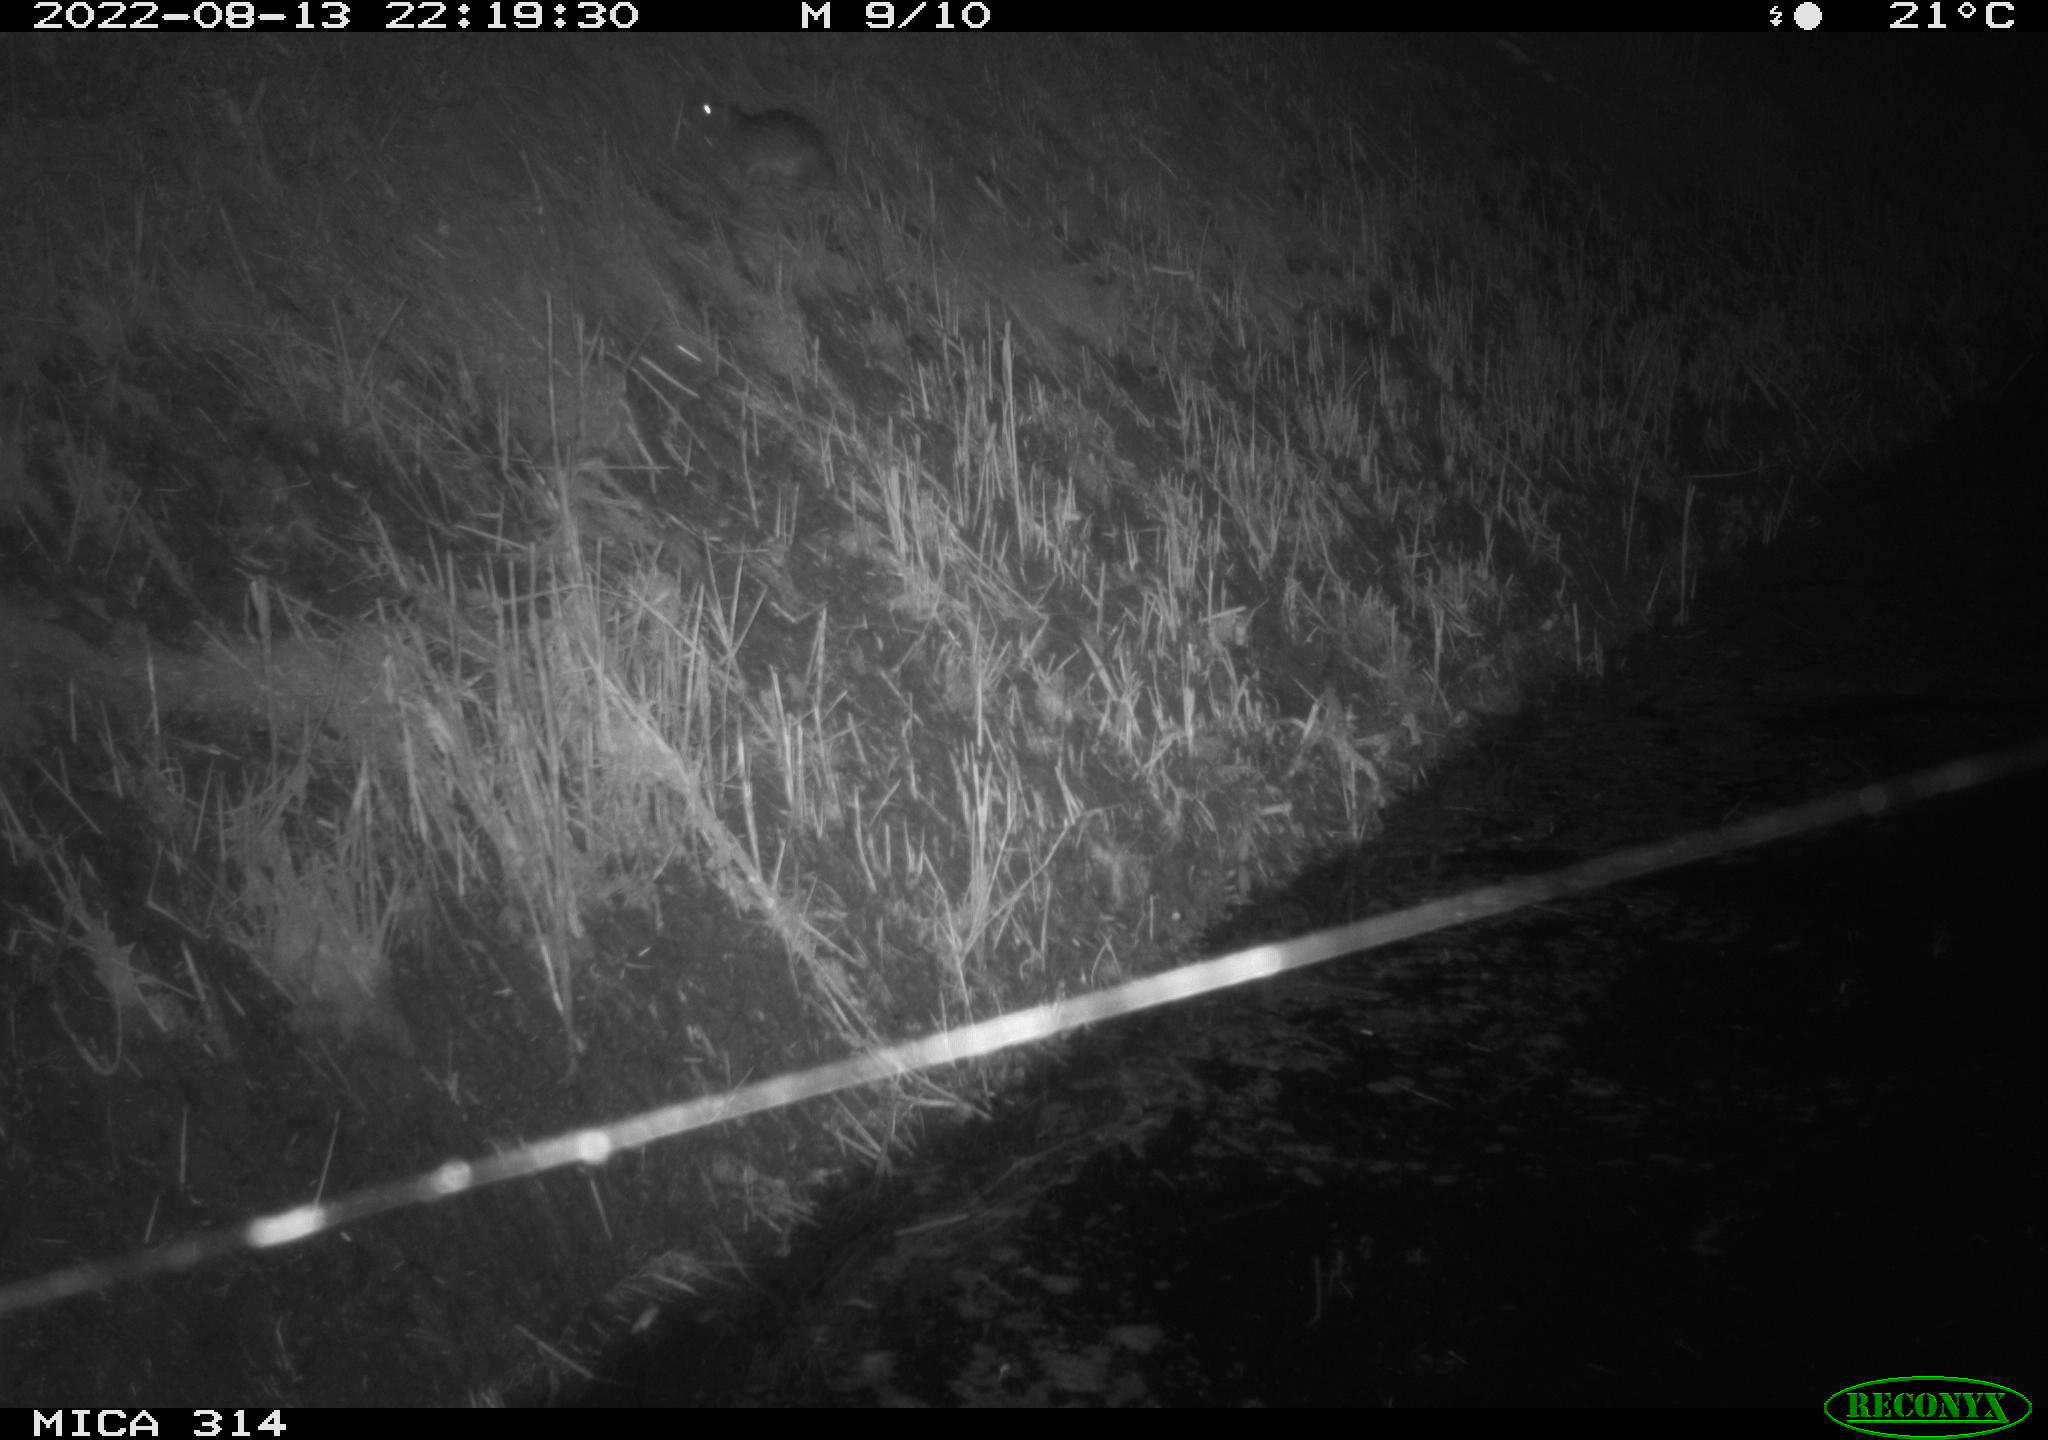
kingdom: Animalia
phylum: Chordata
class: Mammalia
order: Rodentia
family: Muridae
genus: Rattus
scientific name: Rattus norvegicus
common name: Brown rat
